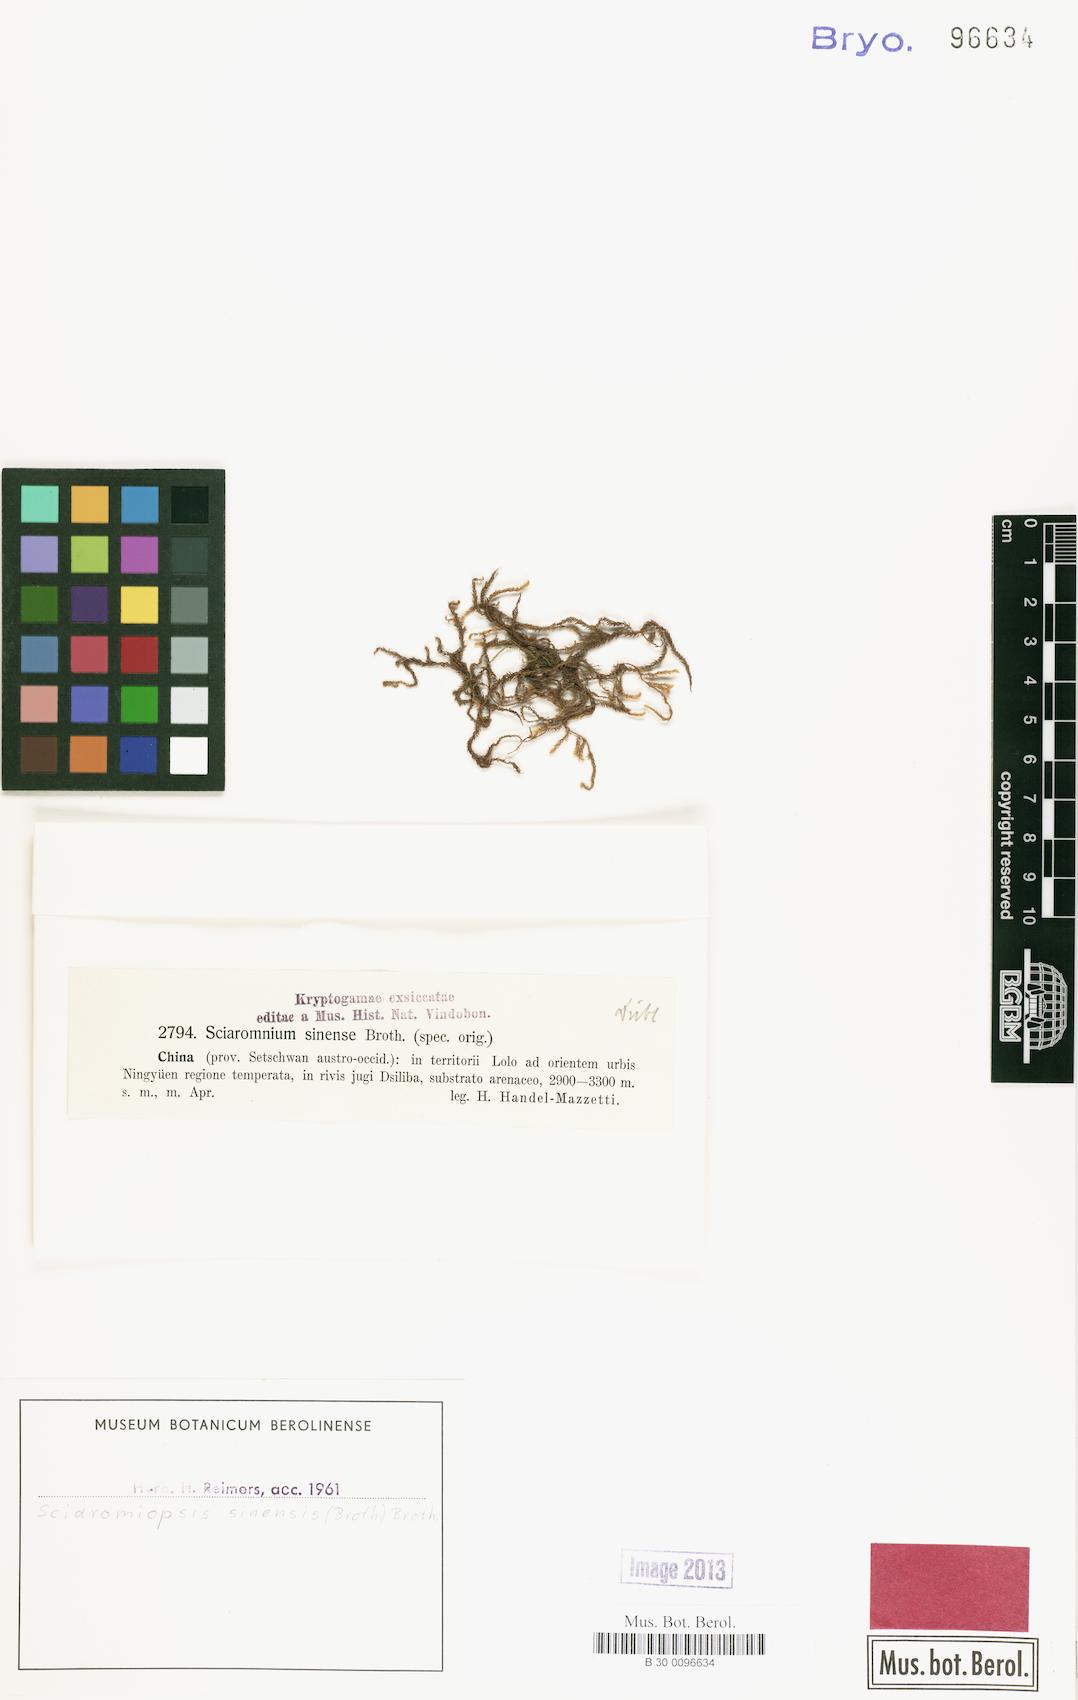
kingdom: Plantae
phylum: Bryophyta
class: Bryopsida
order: Hypnales
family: Brachytheciaceae
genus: Brachythecium
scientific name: Brachythecium sinense
